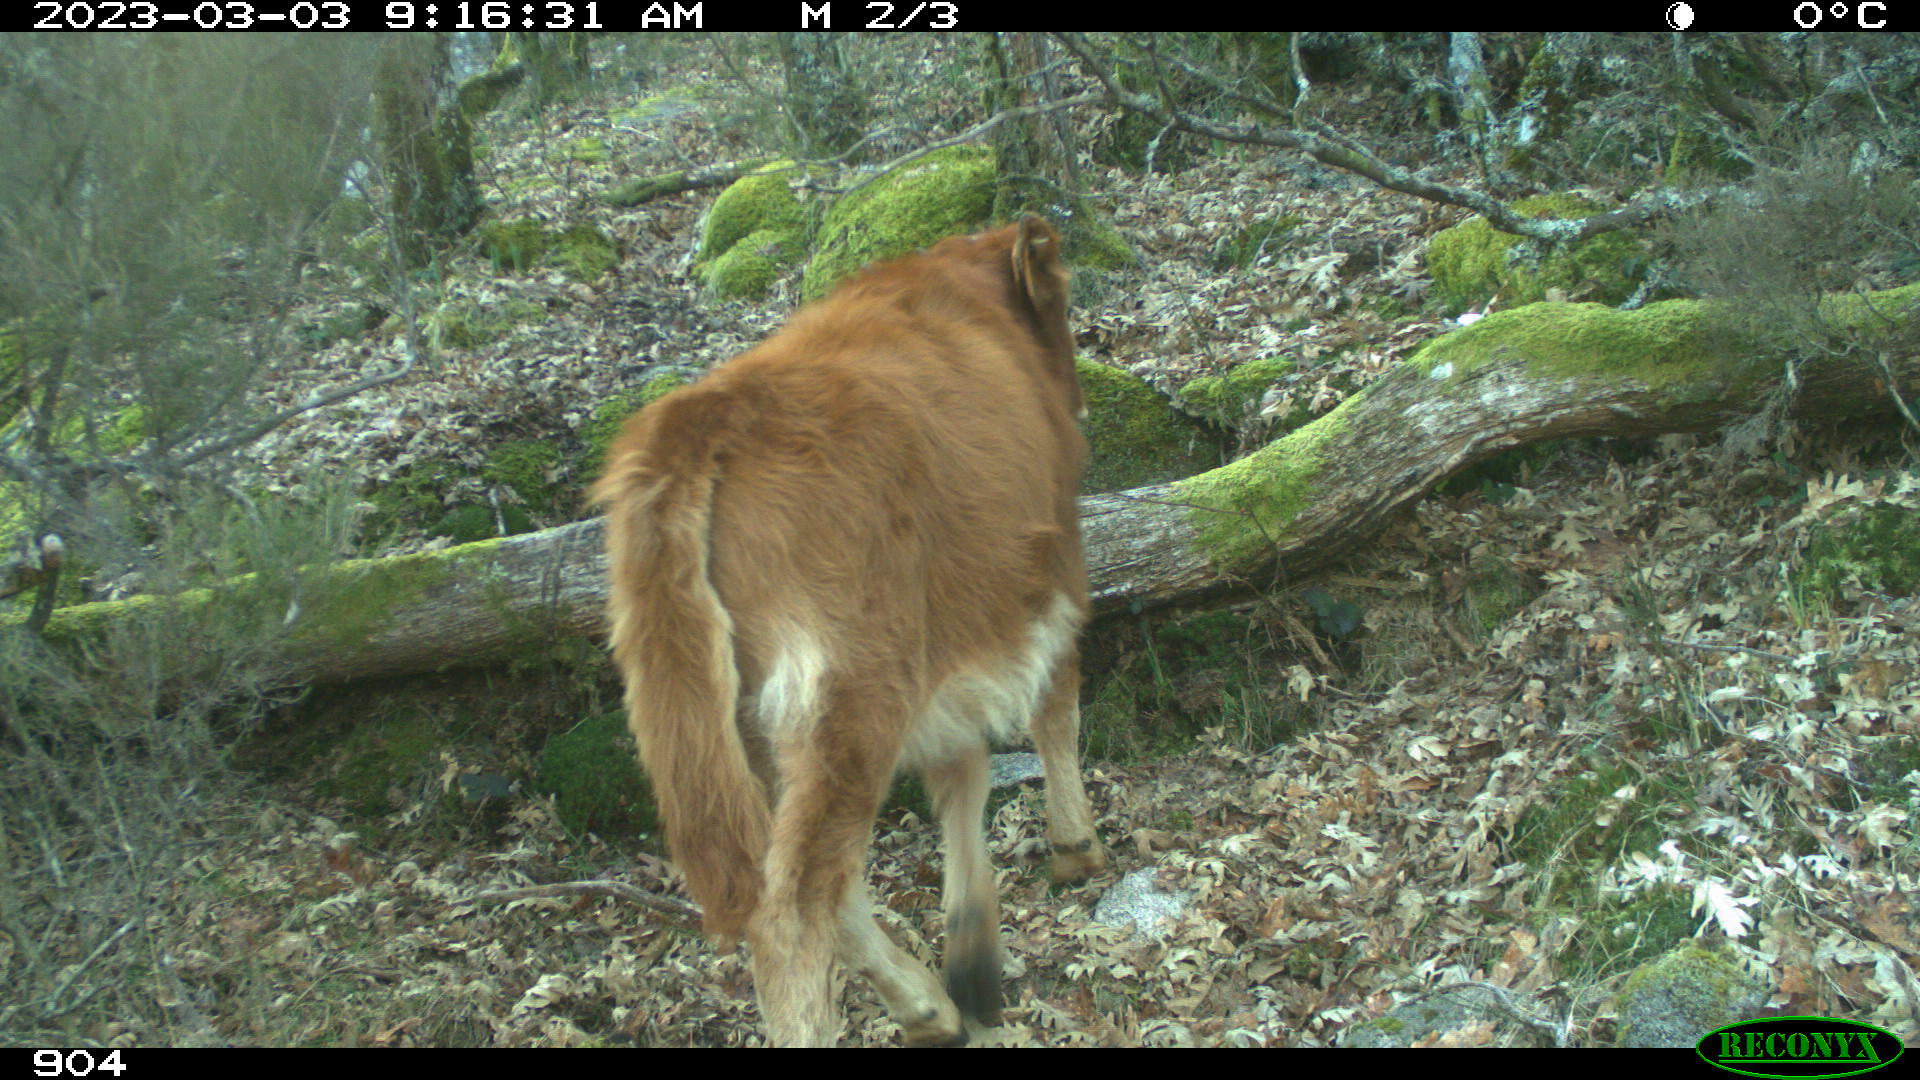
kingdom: Animalia
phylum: Chordata
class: Mammalia
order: Artiodactyla
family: Bovidae
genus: Bos
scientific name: Bos taurus
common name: Domesticated cattle
